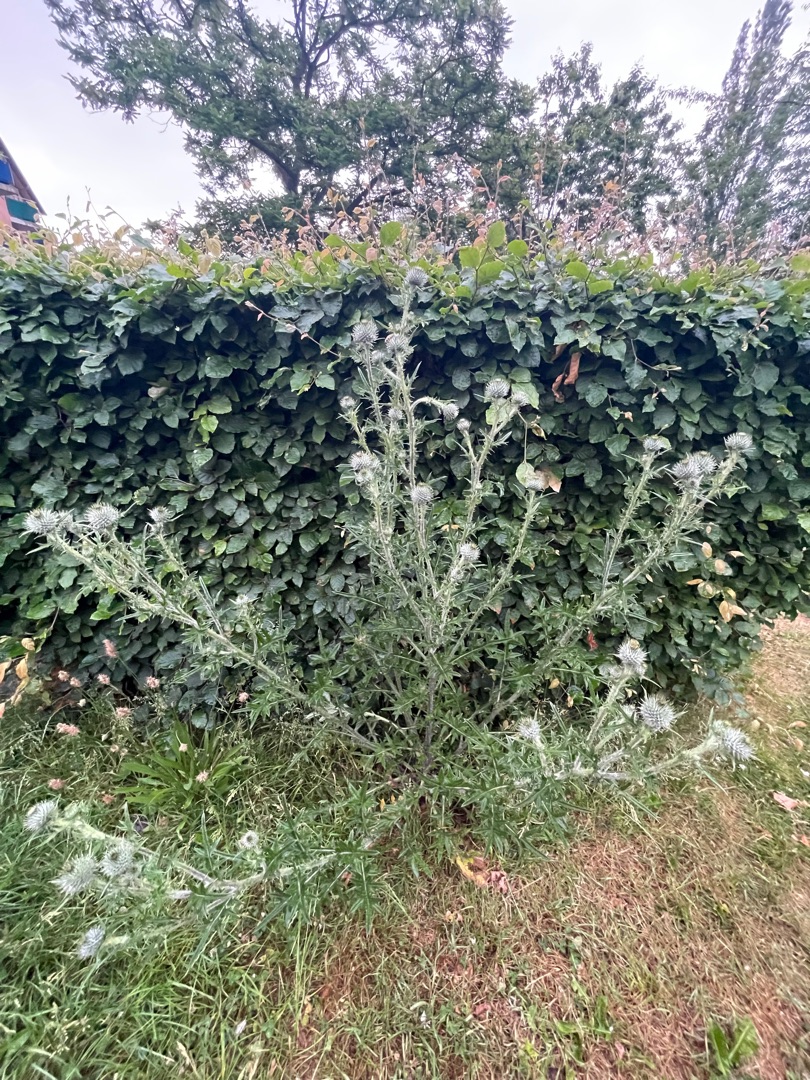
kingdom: Plantae
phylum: Tracheophyta
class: Magnoliopsida
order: Asterales
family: Asteraceae
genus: Cirsium
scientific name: Cirsium vulgare
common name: Horse-tidsel
